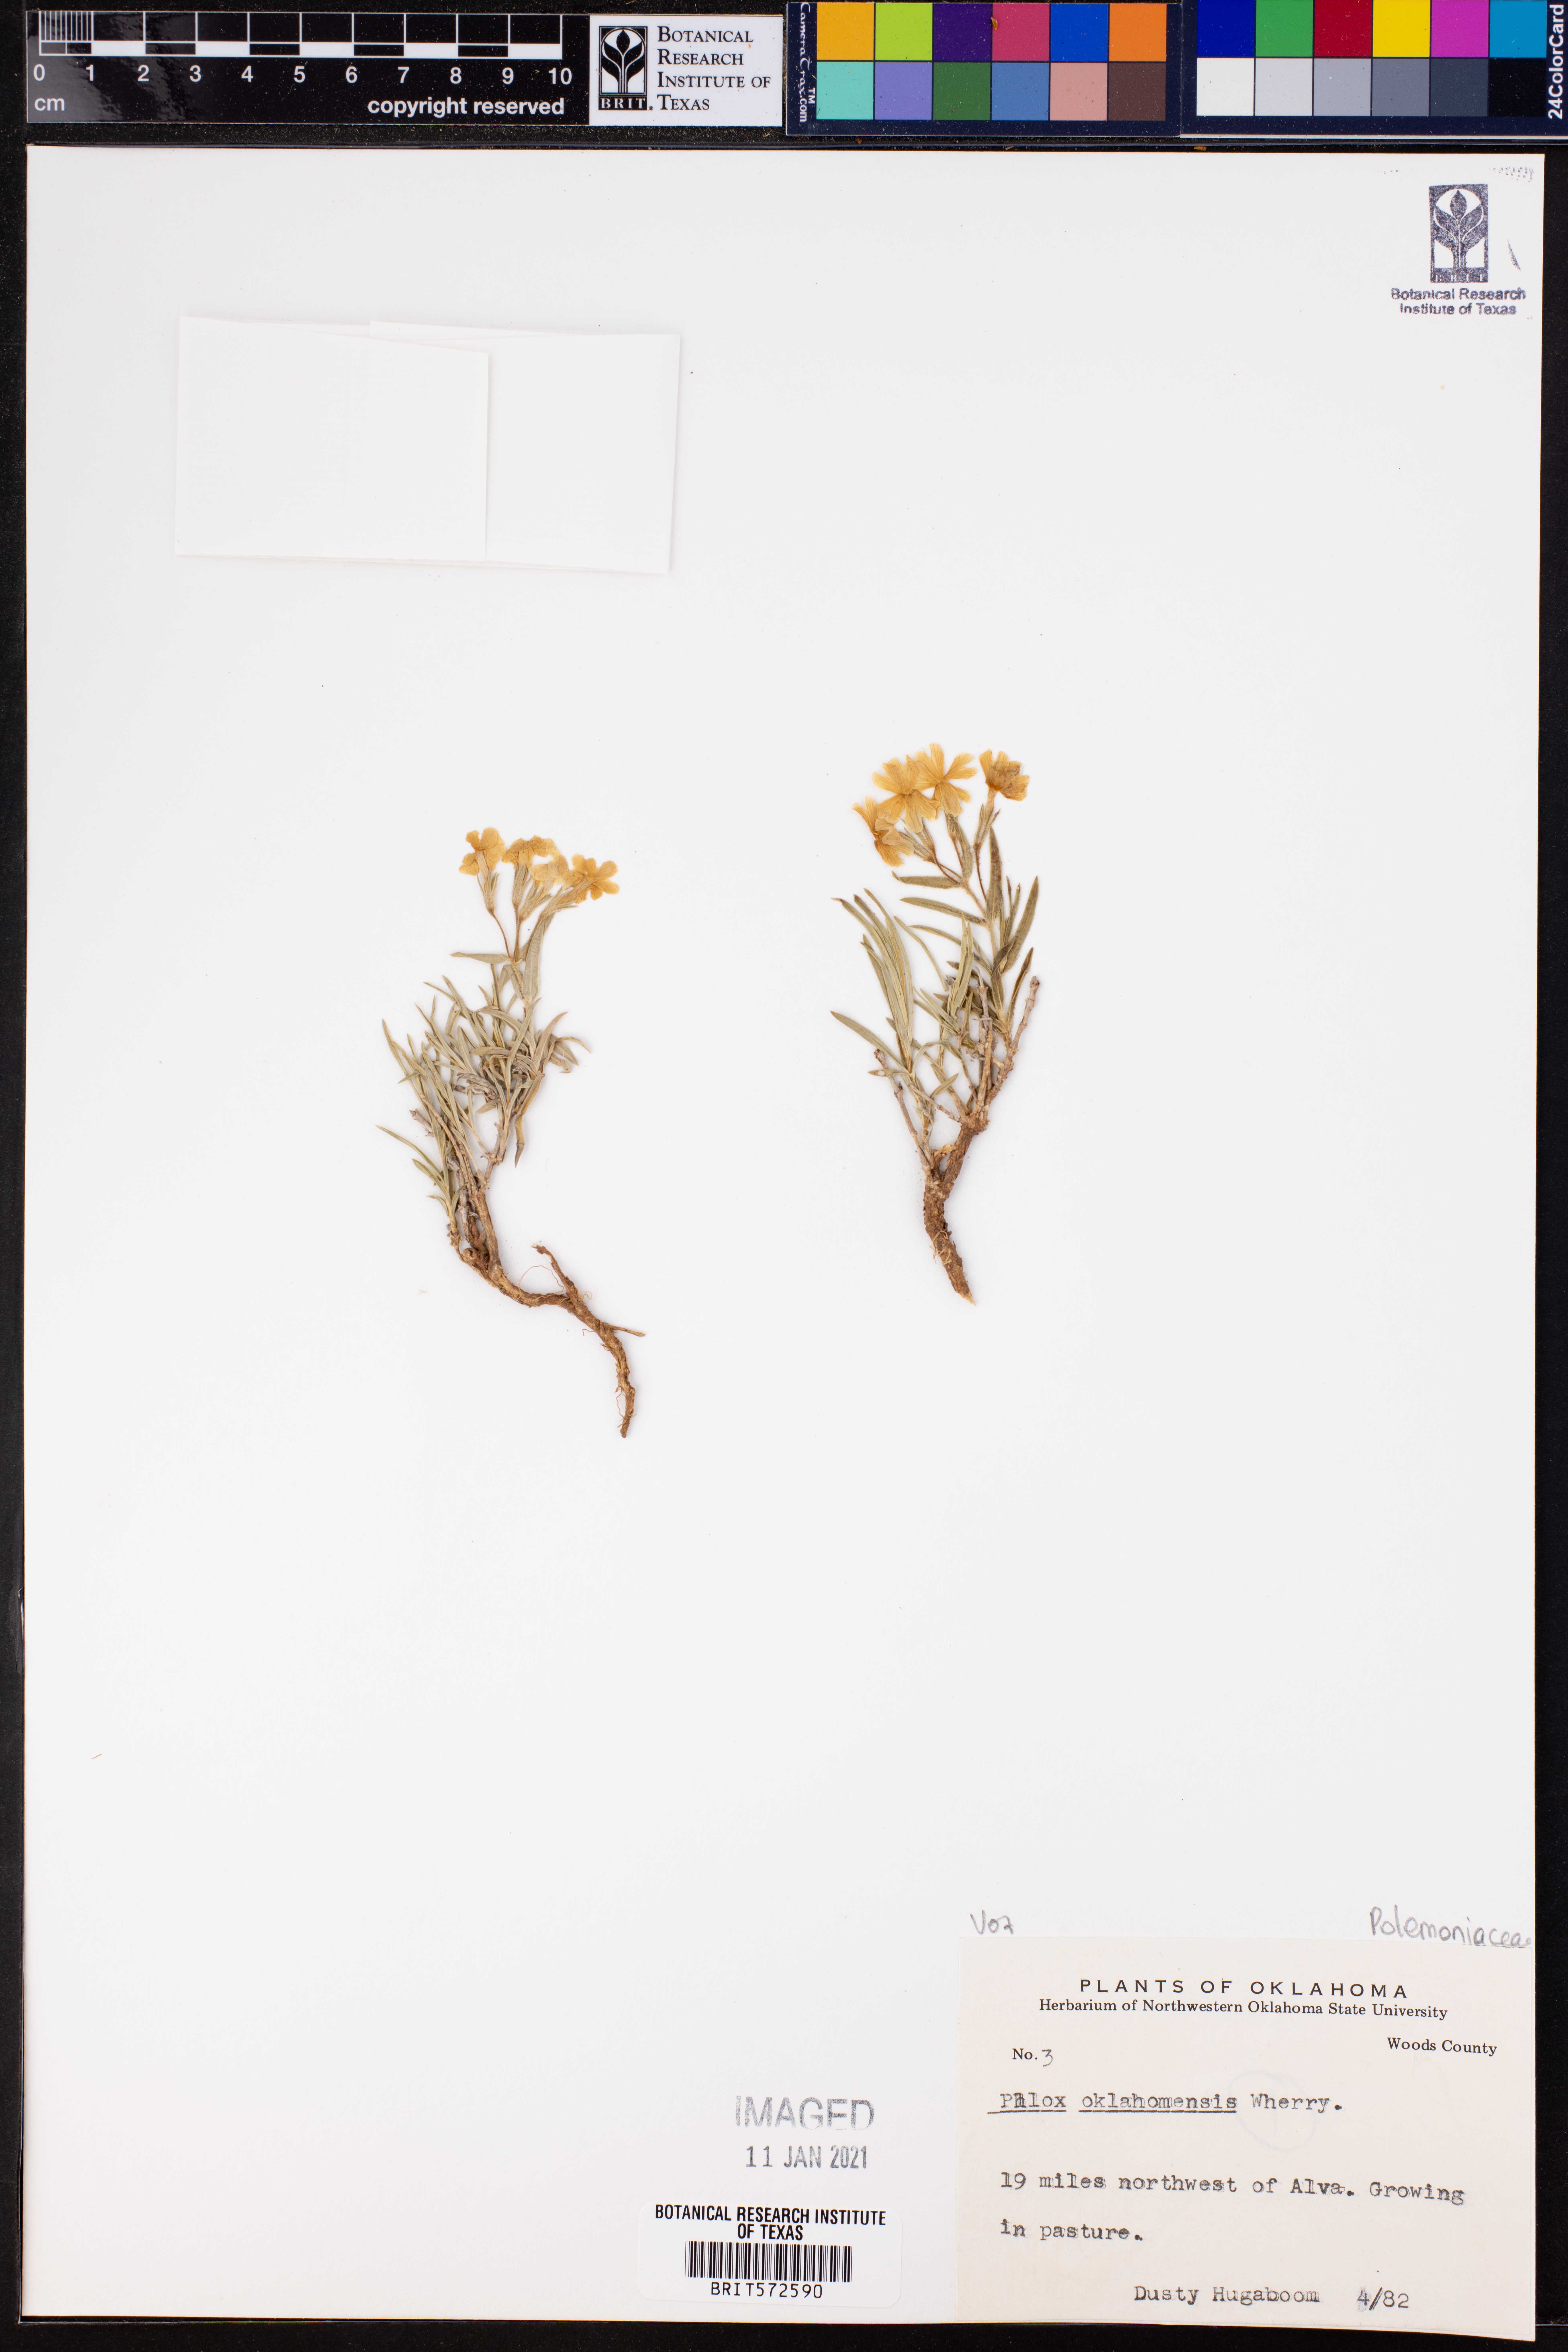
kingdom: Plantae
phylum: Tracheophyta
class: Magnoliopsida
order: Ericales
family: Polemoniaceae
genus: Phlox
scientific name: Phlox oklahomensis
